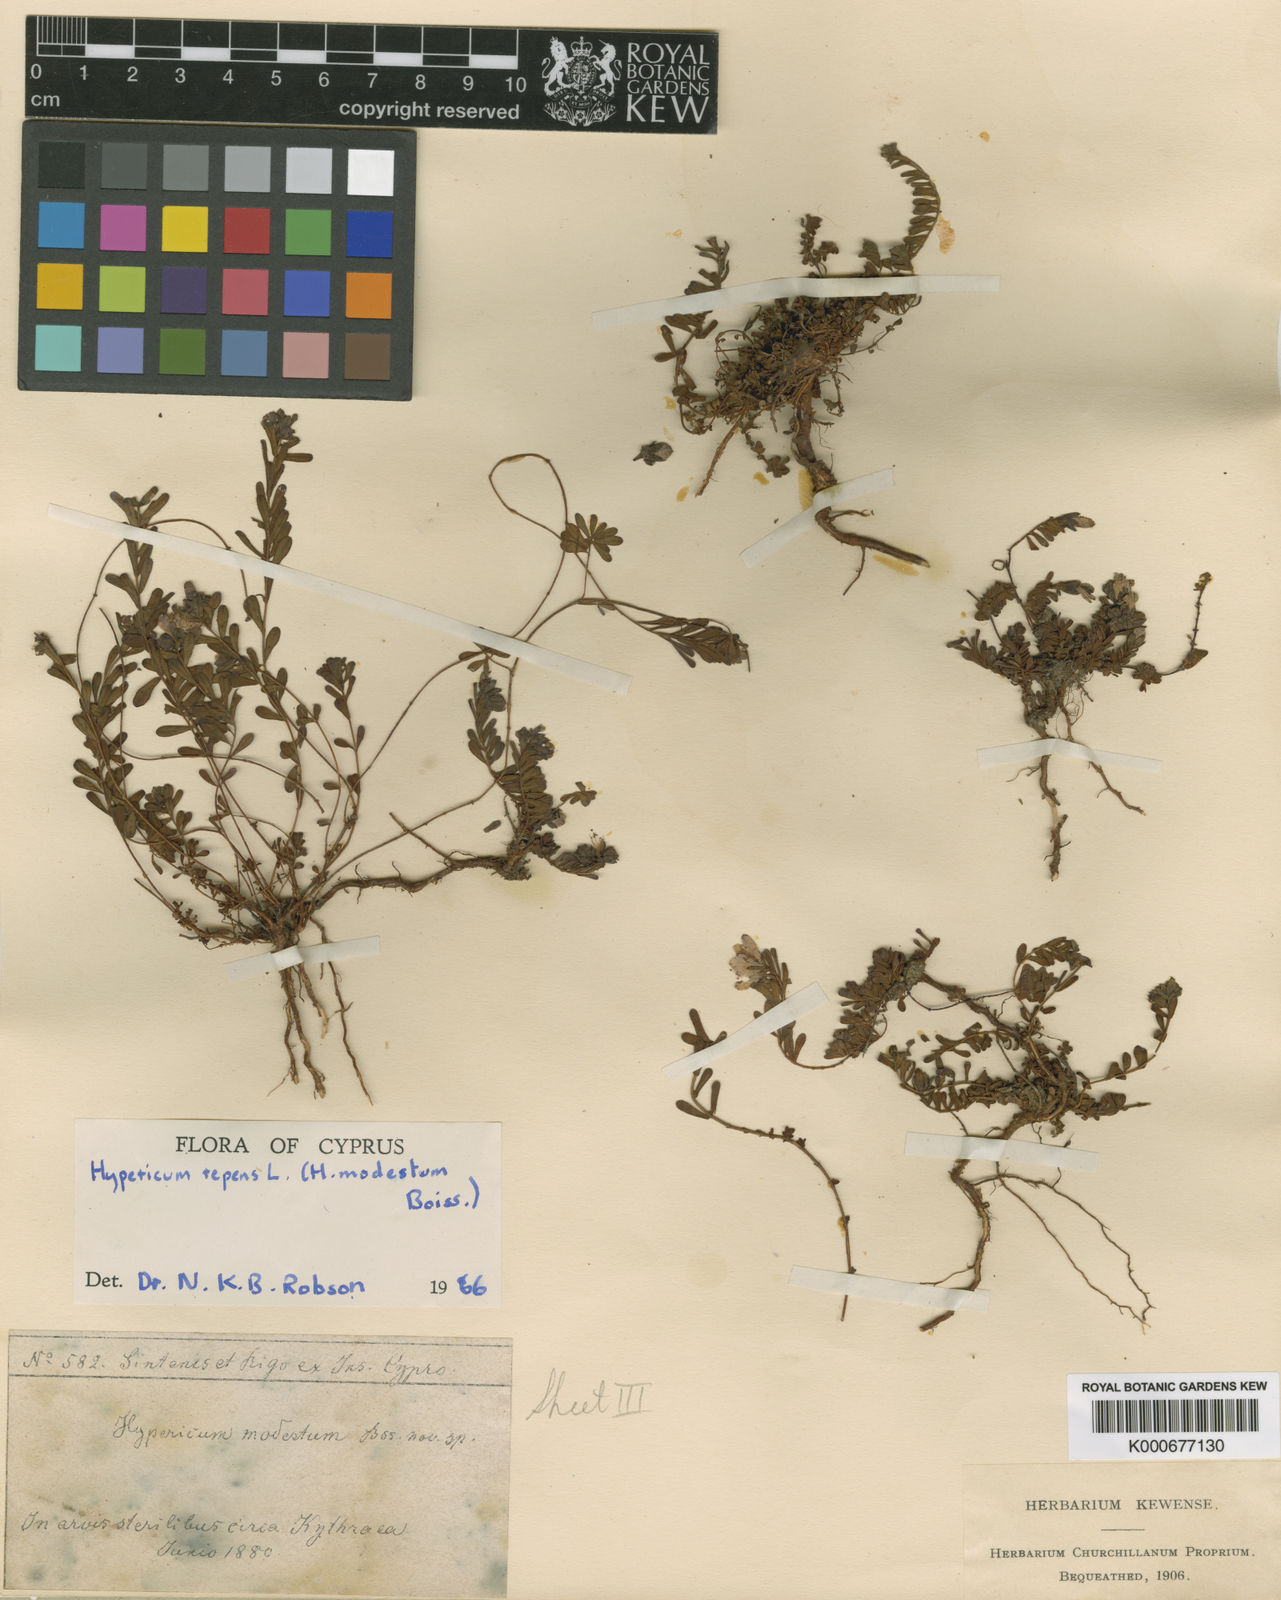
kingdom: Plantae
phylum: Tracheophyta
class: Magnoliopsida
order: Malpighiales
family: Hypericaceae
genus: Hypericum
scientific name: Hypericum repens
